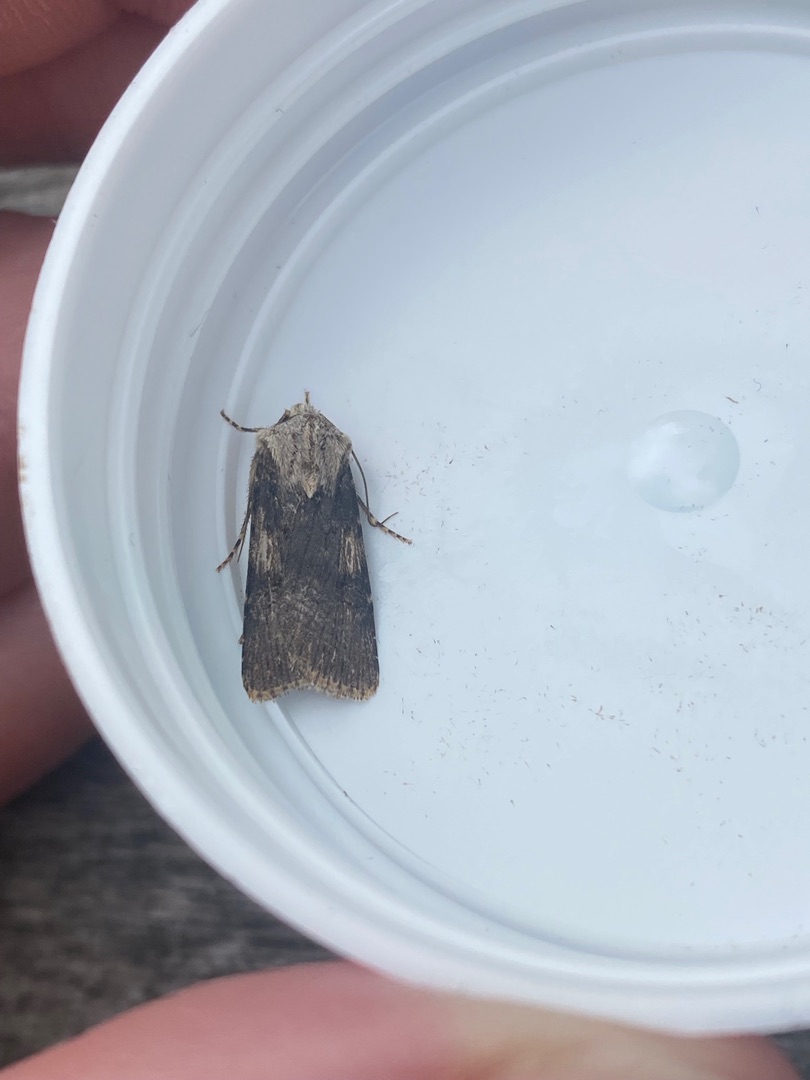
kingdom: Animalia
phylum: Arthropoda
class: Insecta
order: Lepidoptera
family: Noctuidae
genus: Agrotis
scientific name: Agrotis puta
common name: Frønnet landmand
